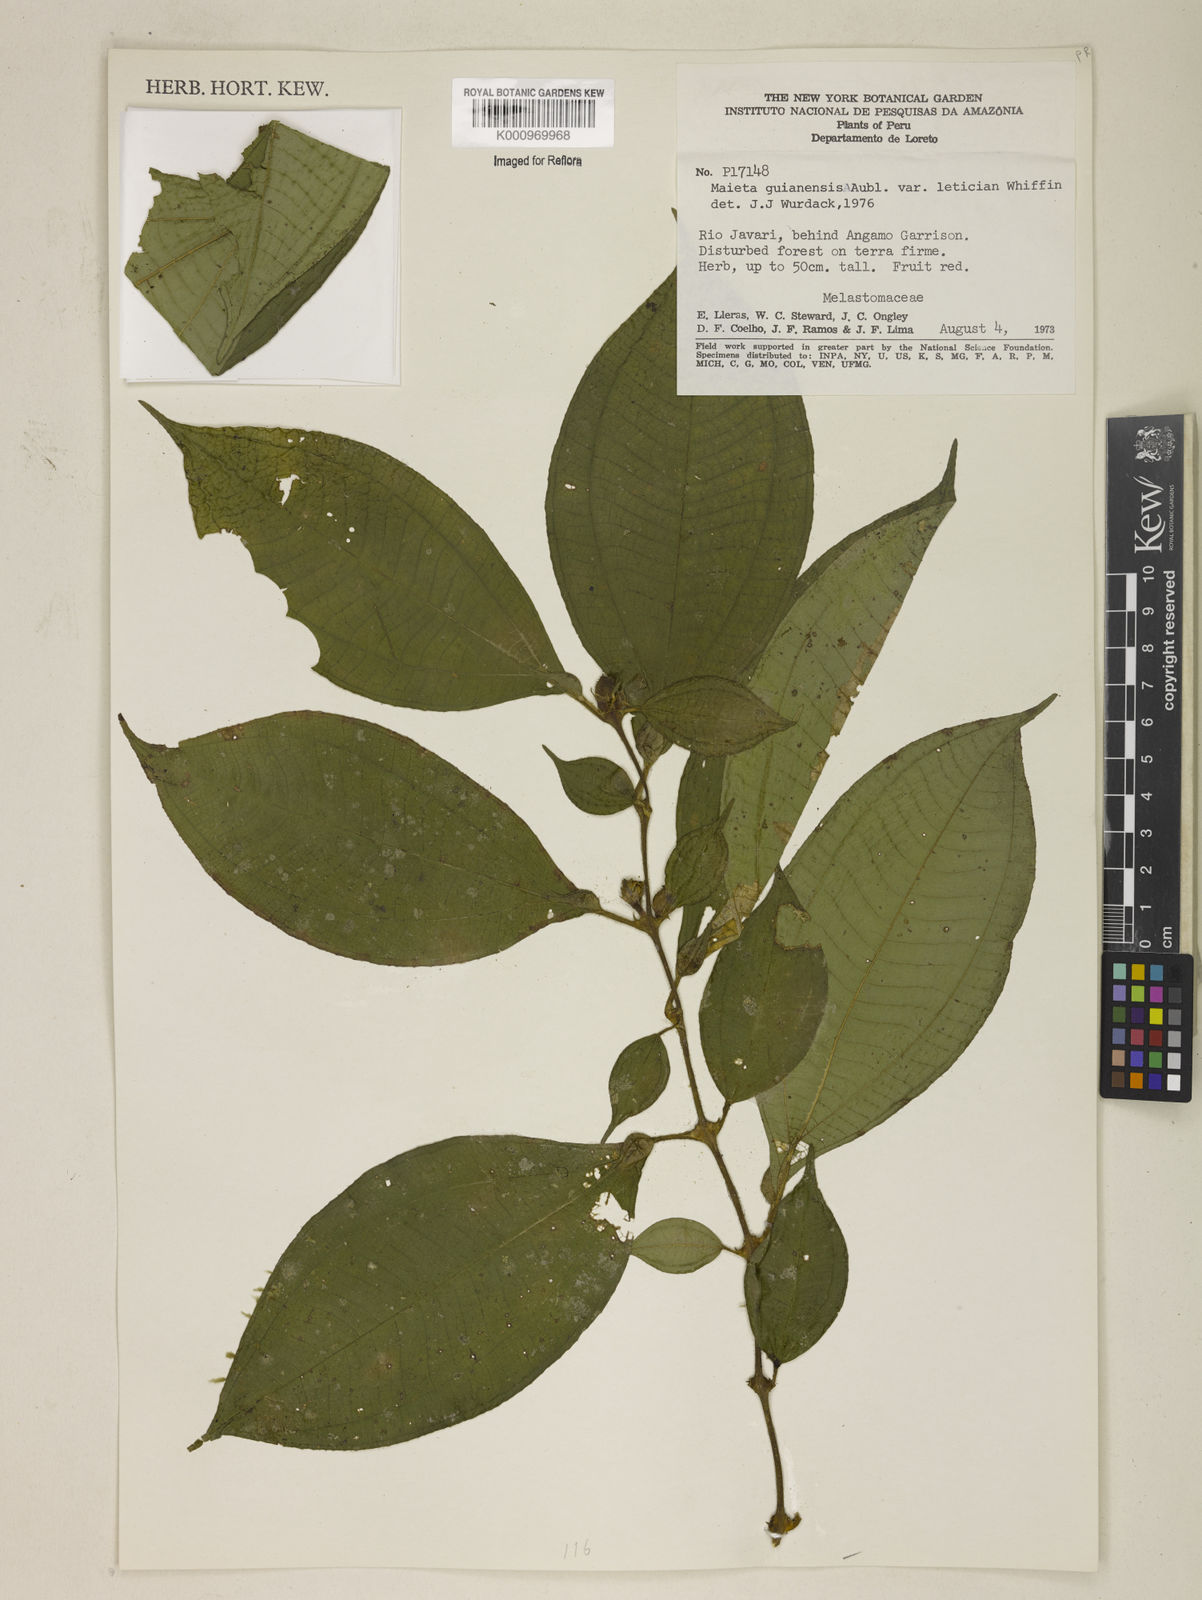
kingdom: Plantae
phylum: Tracheophyta
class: Magnoliopsida
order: Myrtales
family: Melastomataceae
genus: Miconia
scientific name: Miconia mayeta
